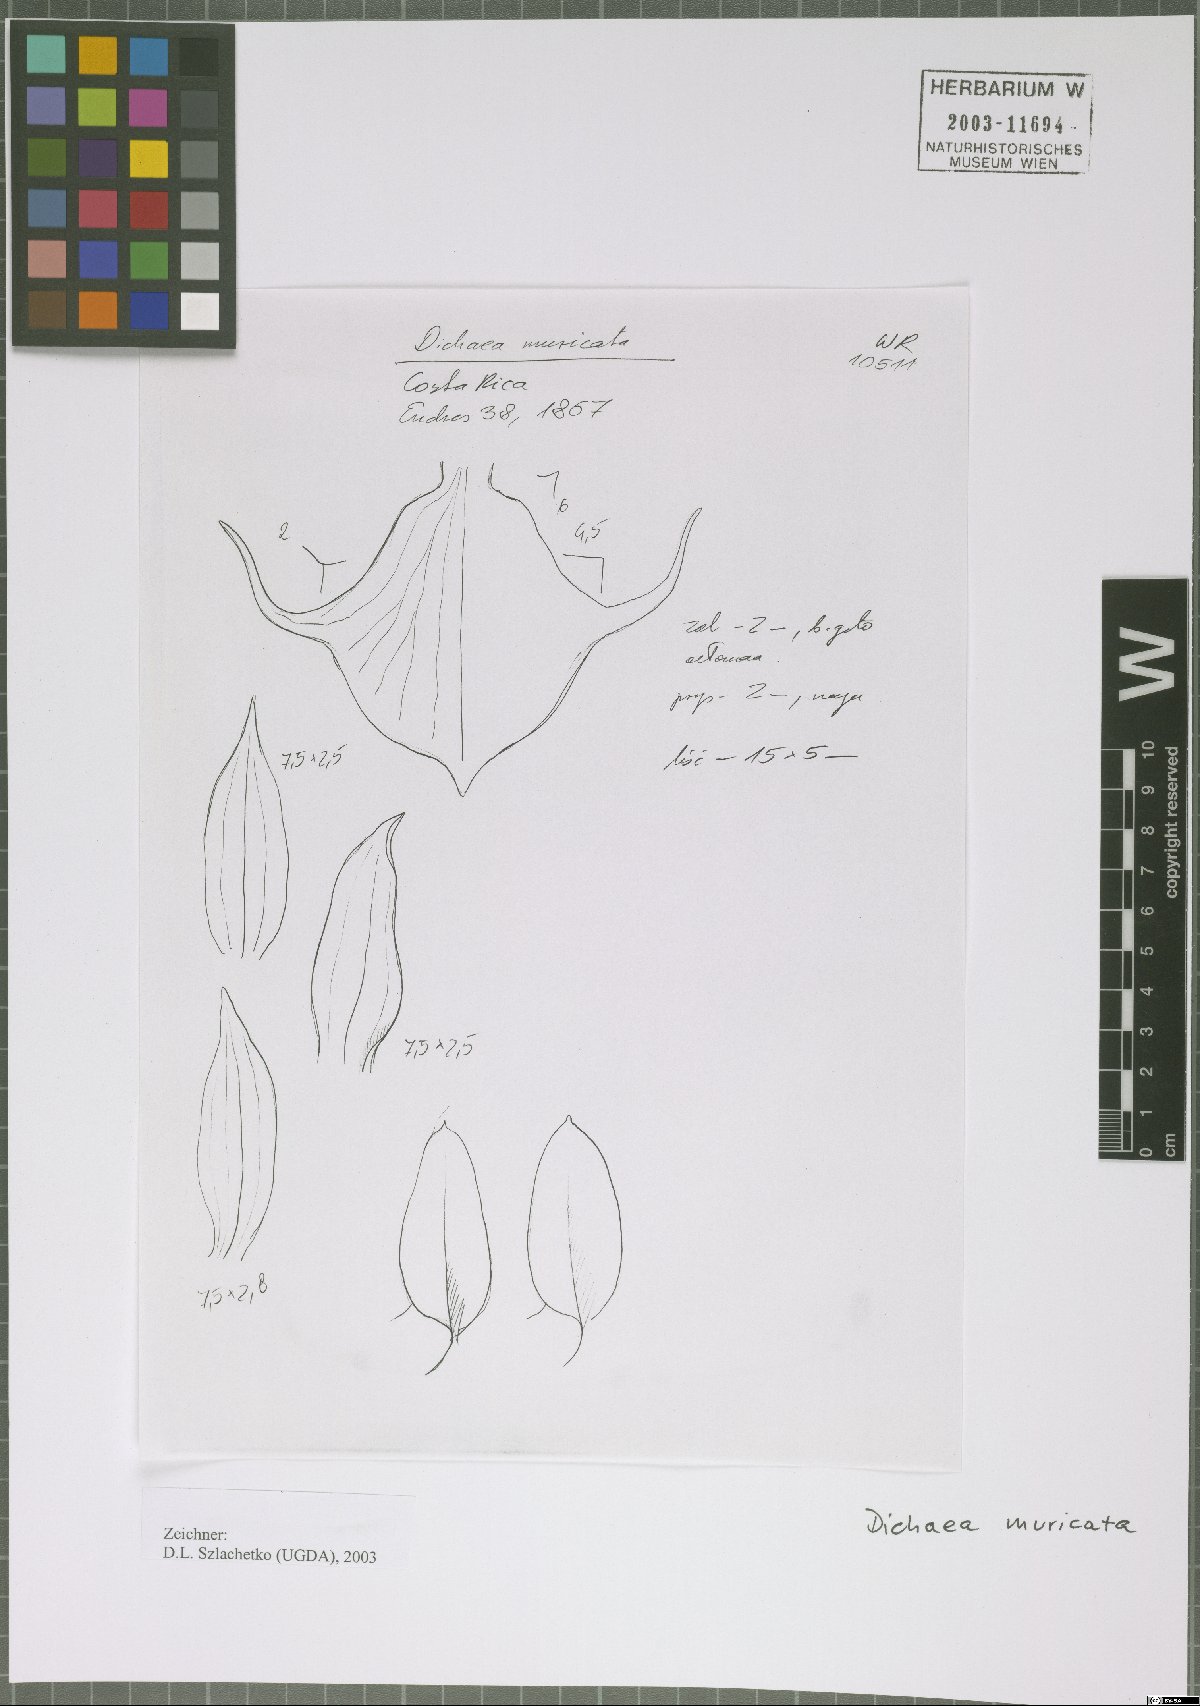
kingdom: Plantae
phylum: Tracheophyta
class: Liliopsida
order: Asparagales
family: Orchidaceae
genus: Dichaea
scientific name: Dichaea morrisii
